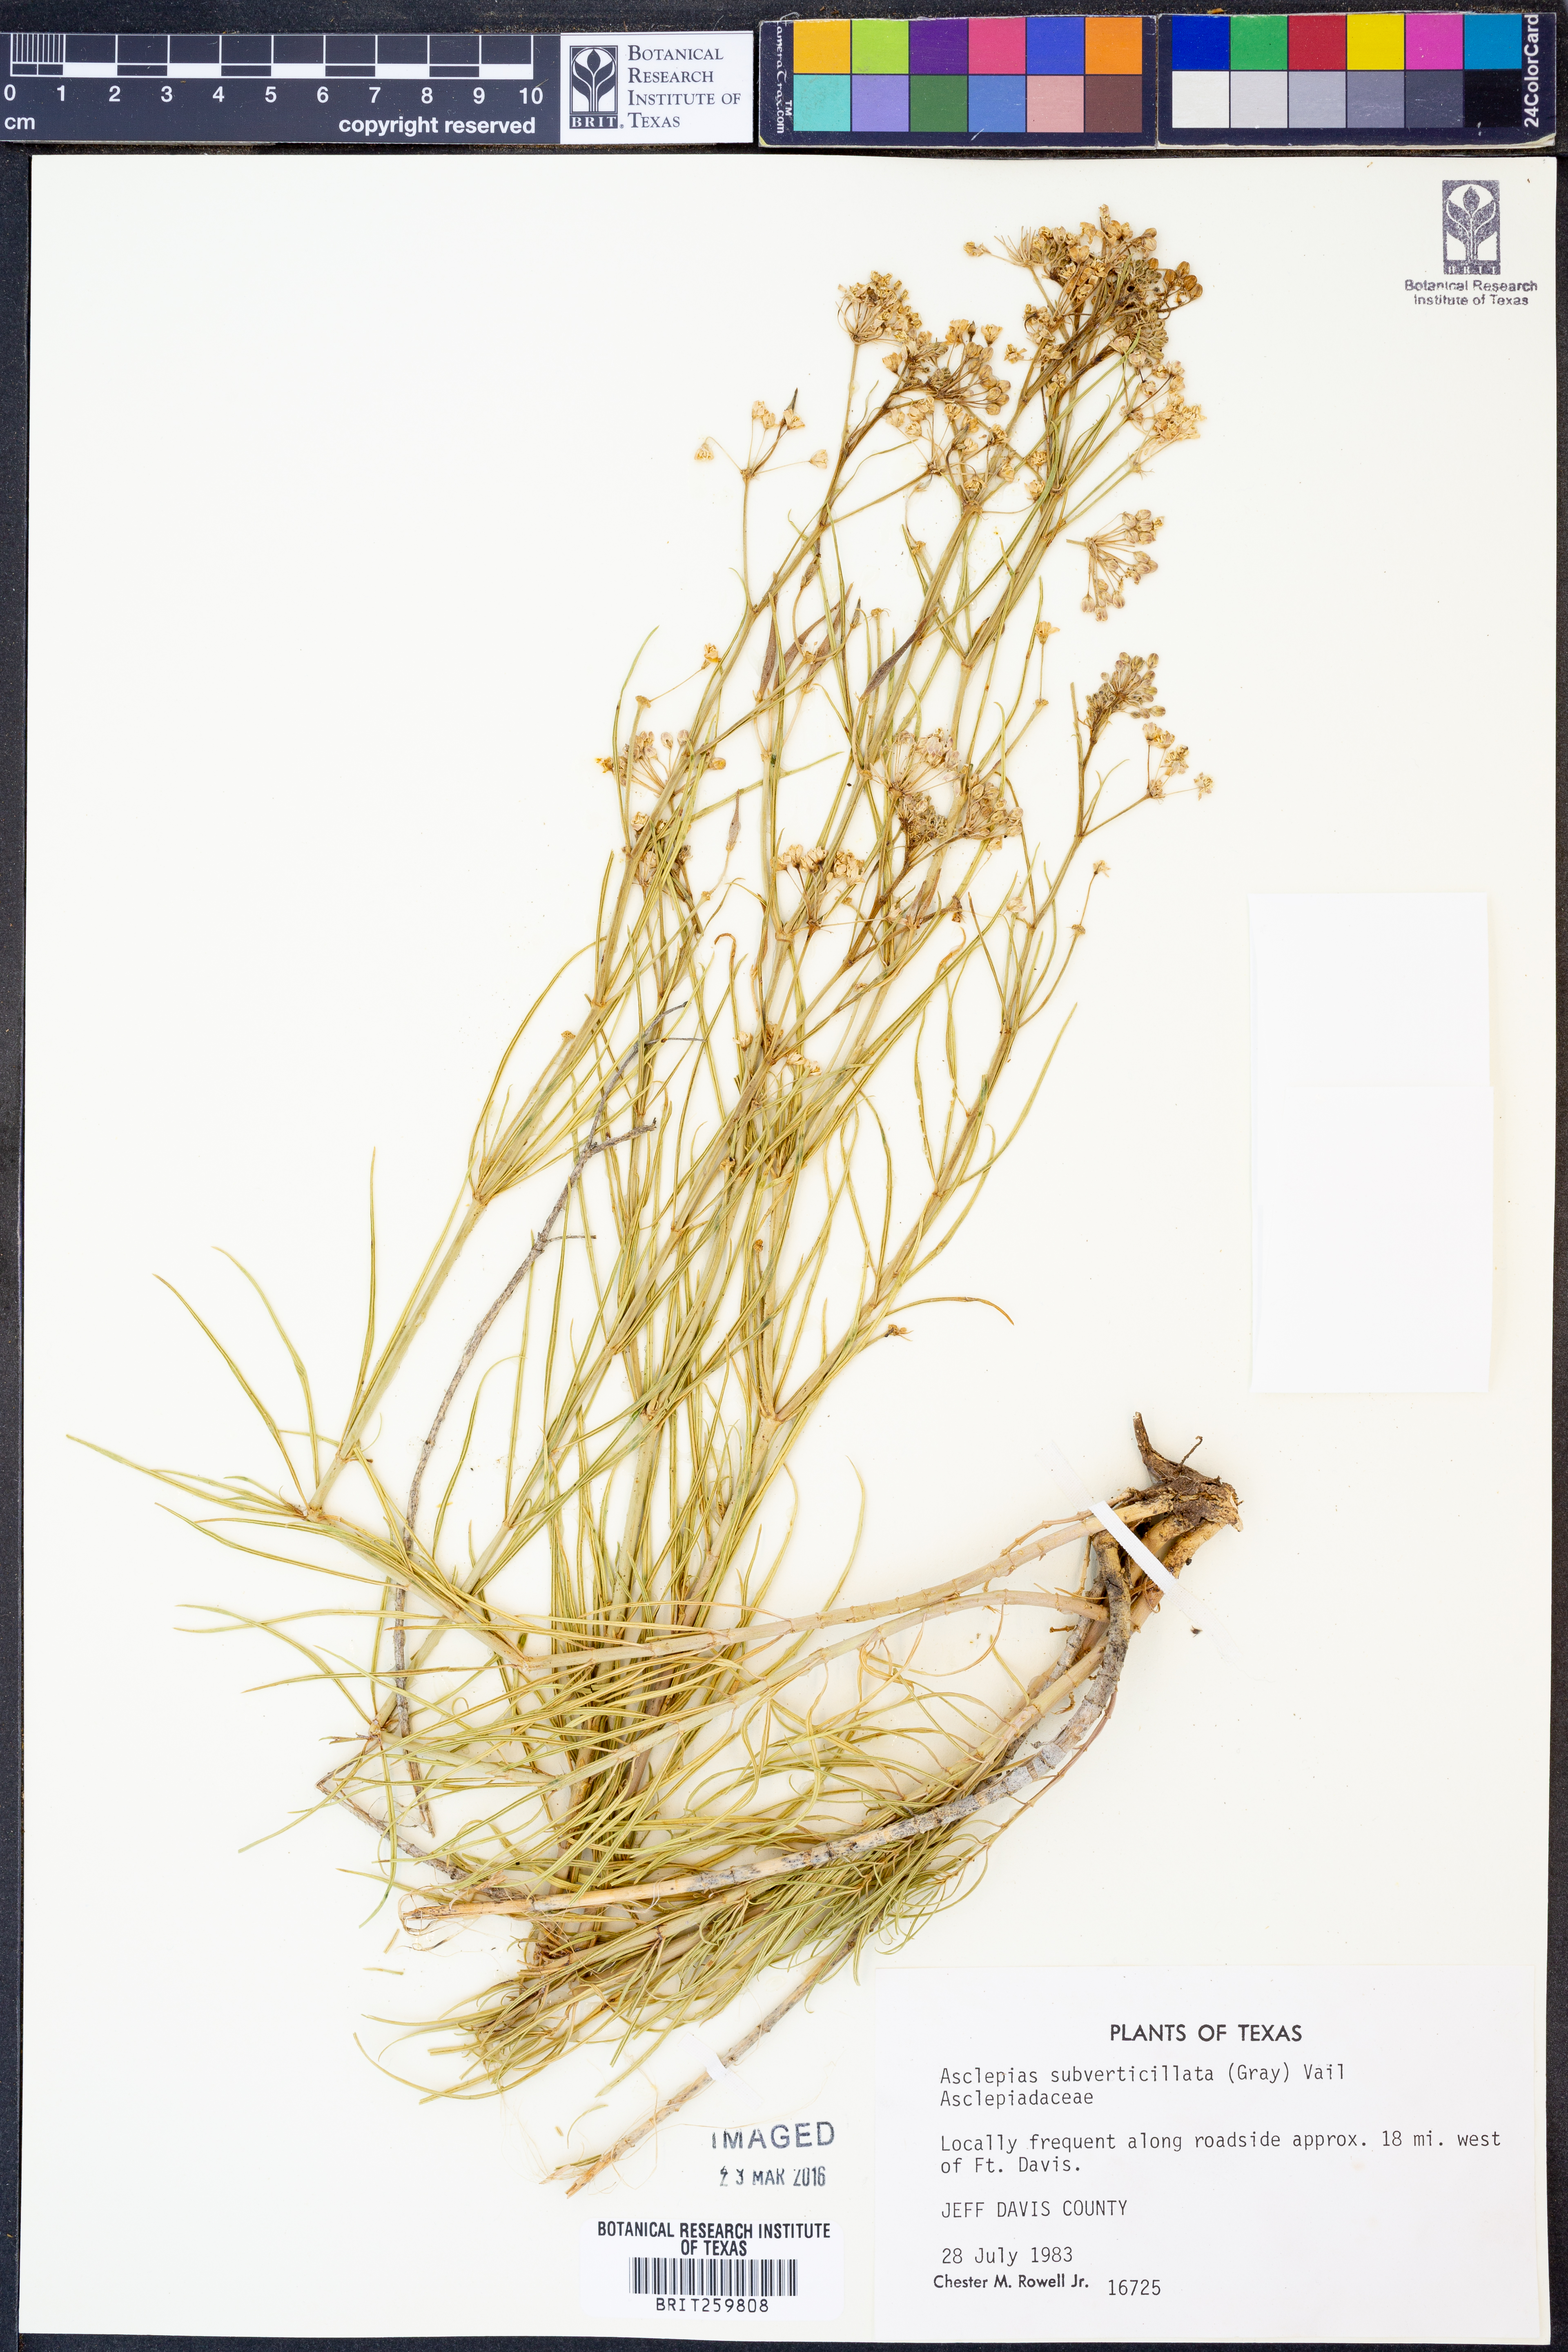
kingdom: Plantae
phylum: Tracheophyta
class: Magnoliopsida
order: Gentianales
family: Apocynaceae
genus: Asclepias
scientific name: Asclepias subverticillata
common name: Horsetail milkweed
